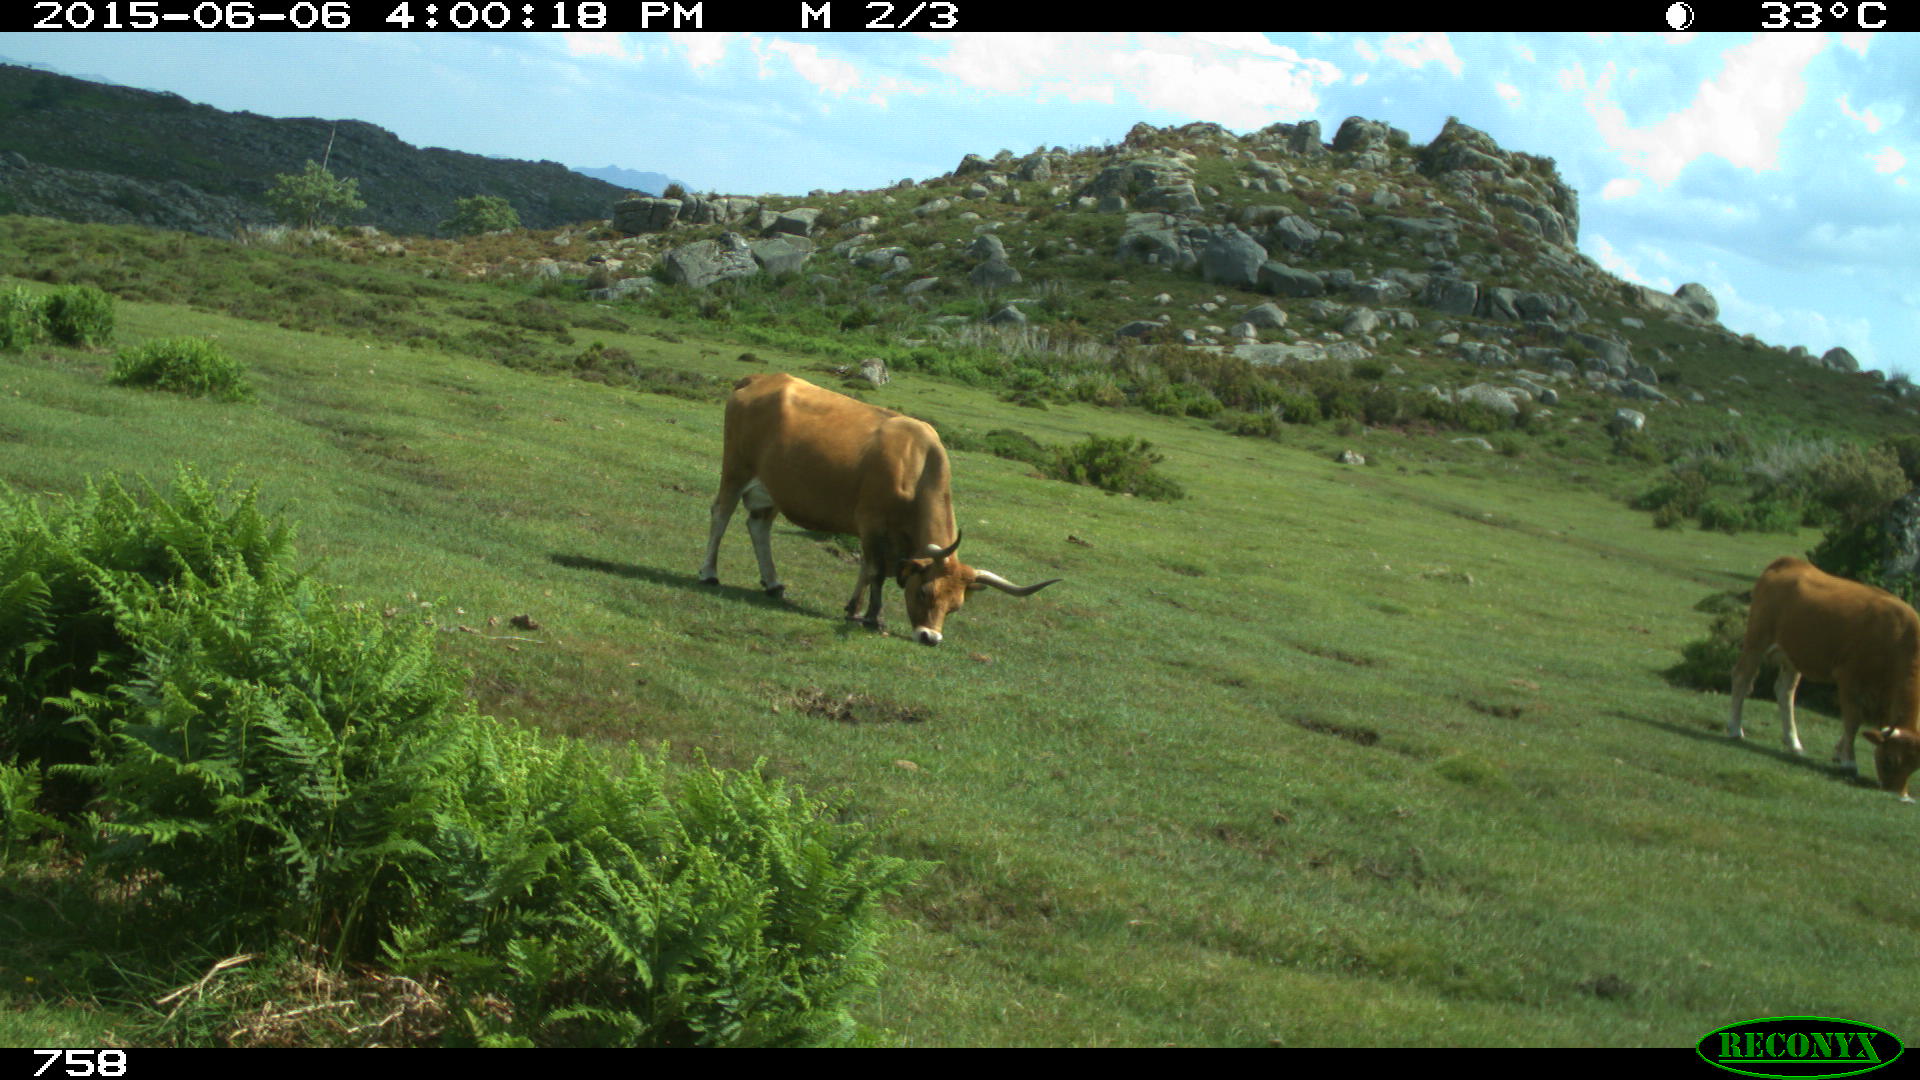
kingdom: Animalia
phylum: Chordata
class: Mammalia
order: Artiodactyla
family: Bovidae
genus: Bos
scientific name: Bos taurus
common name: Domesticated cattle
